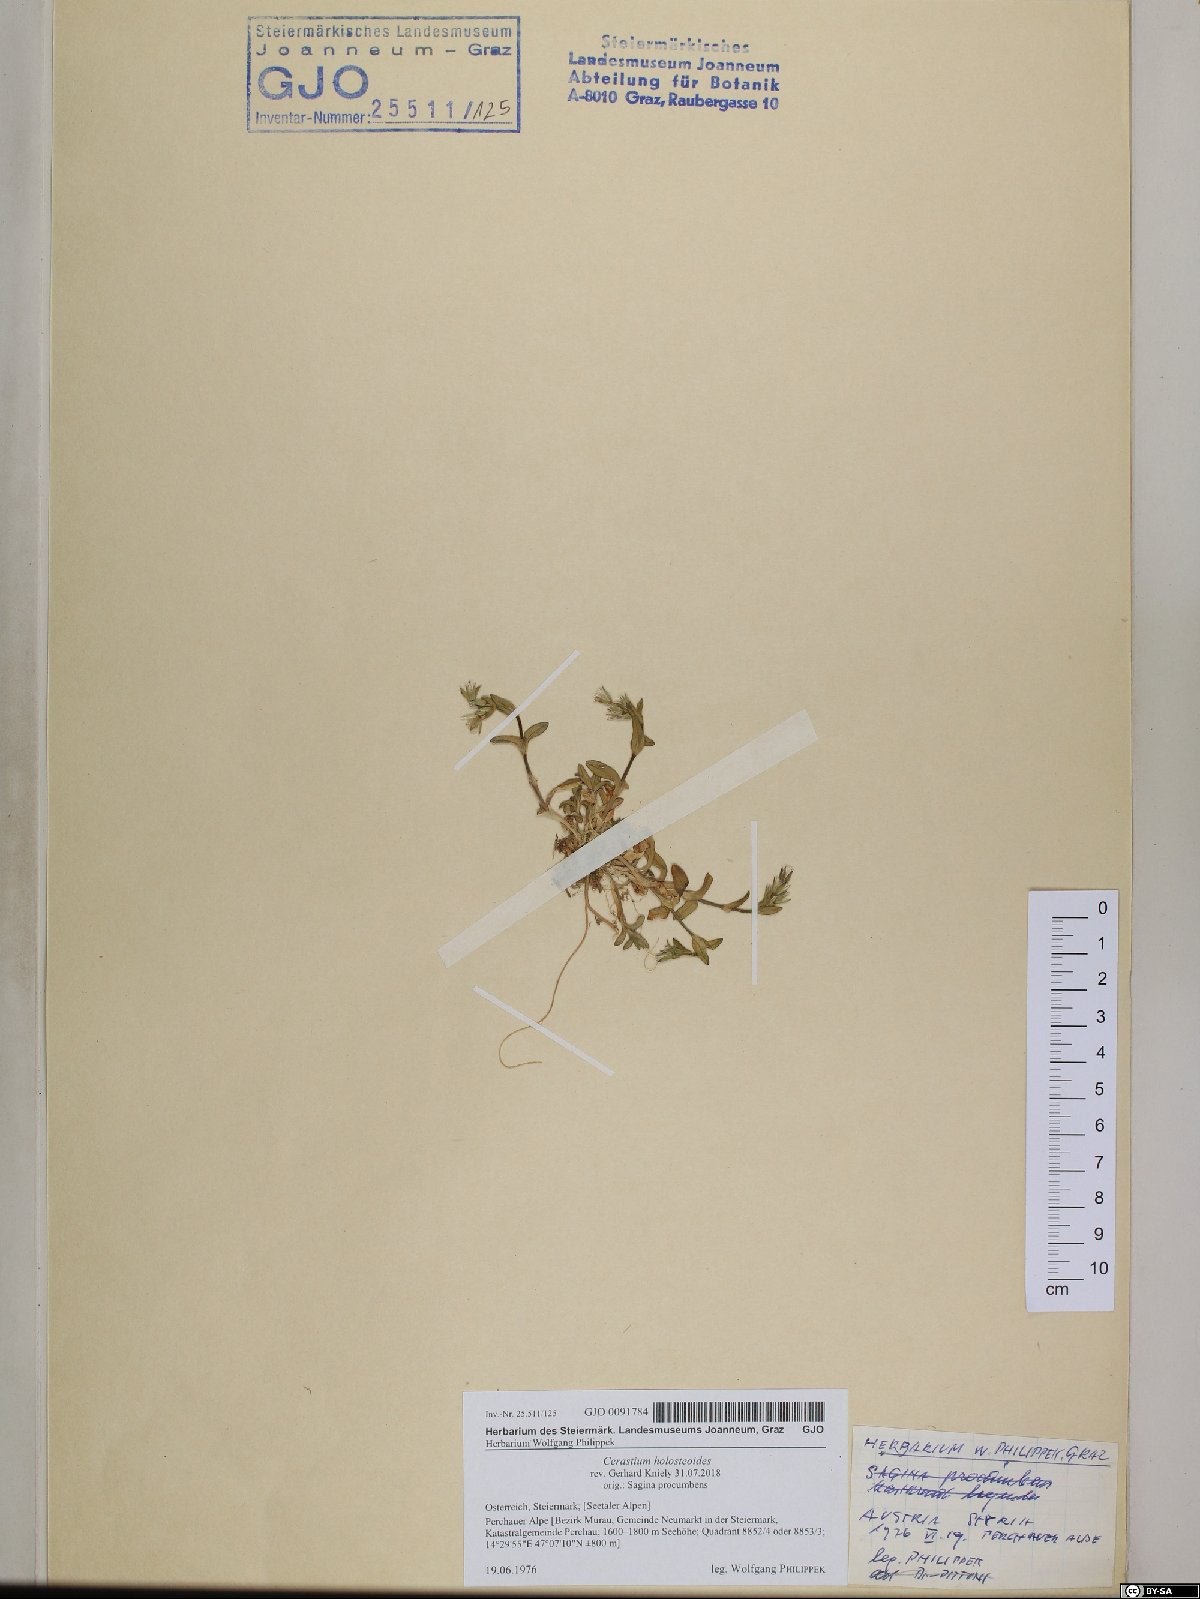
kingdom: Plantae
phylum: Tracheophyta
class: Magnoliopsida
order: Caryophyllales
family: Caryophyllaceae
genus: Cerastium
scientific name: Cerastium holosteoides
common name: Big chickweed
